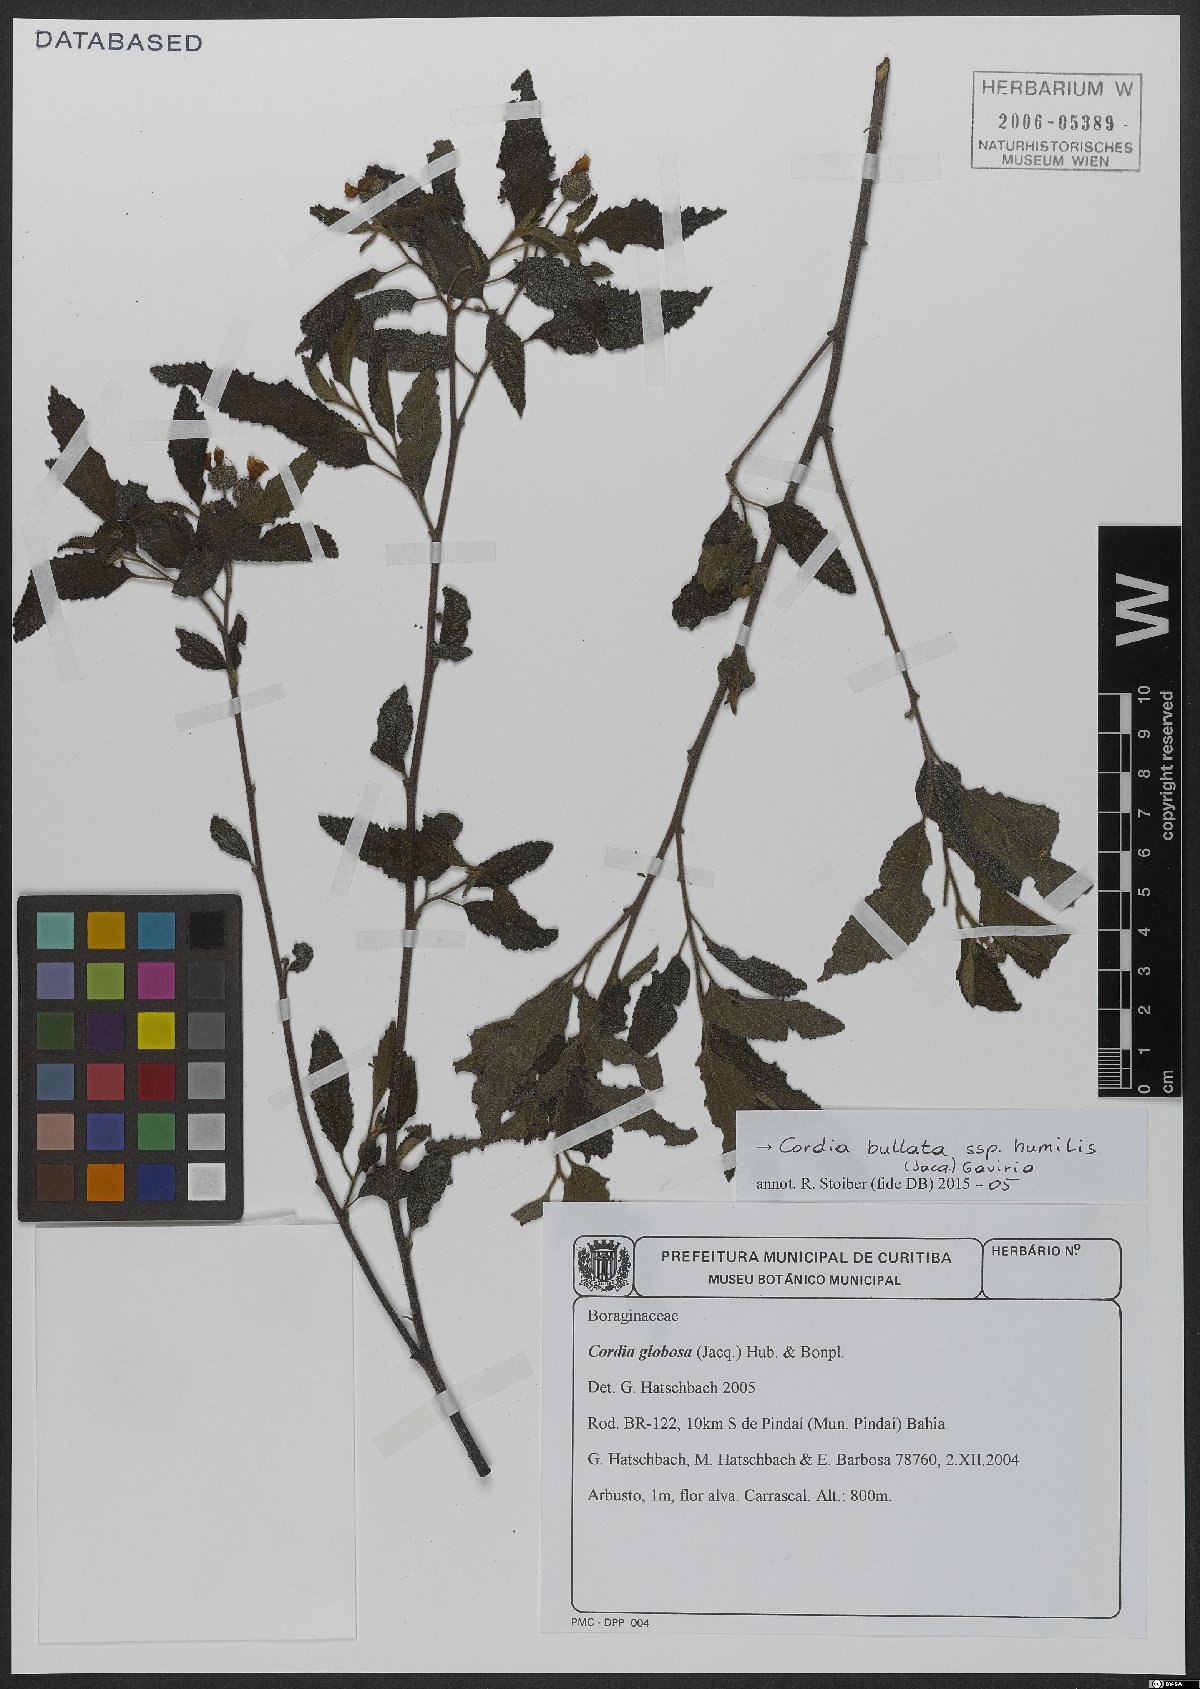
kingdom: Plantae
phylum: Tracheophyta
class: Magnoliopsida
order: Boraginales
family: Cordiaceae
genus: Varronia
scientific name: Varronia bullata
